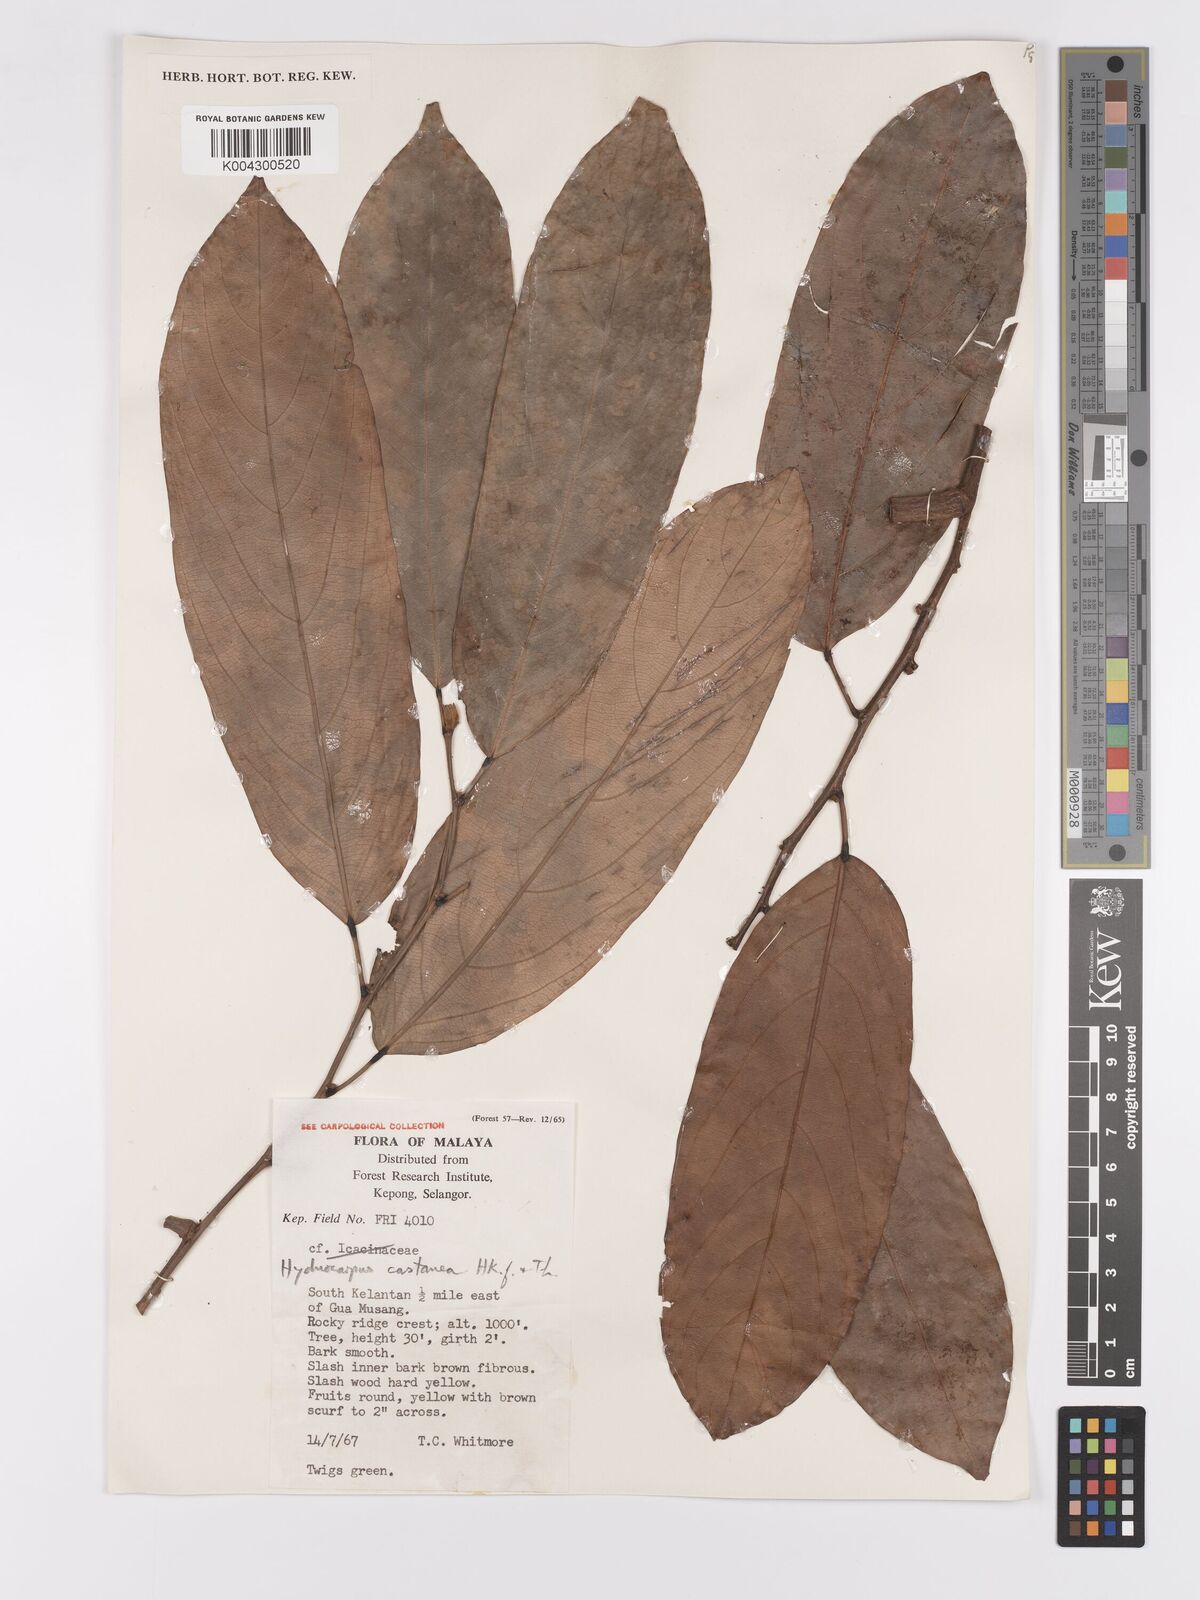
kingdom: Plantae
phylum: Tracheophyta
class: Magnoliopsida
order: Malpighiales
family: Achariaceae
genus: Hydnocarpus
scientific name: Hydnocarpus castaneus
